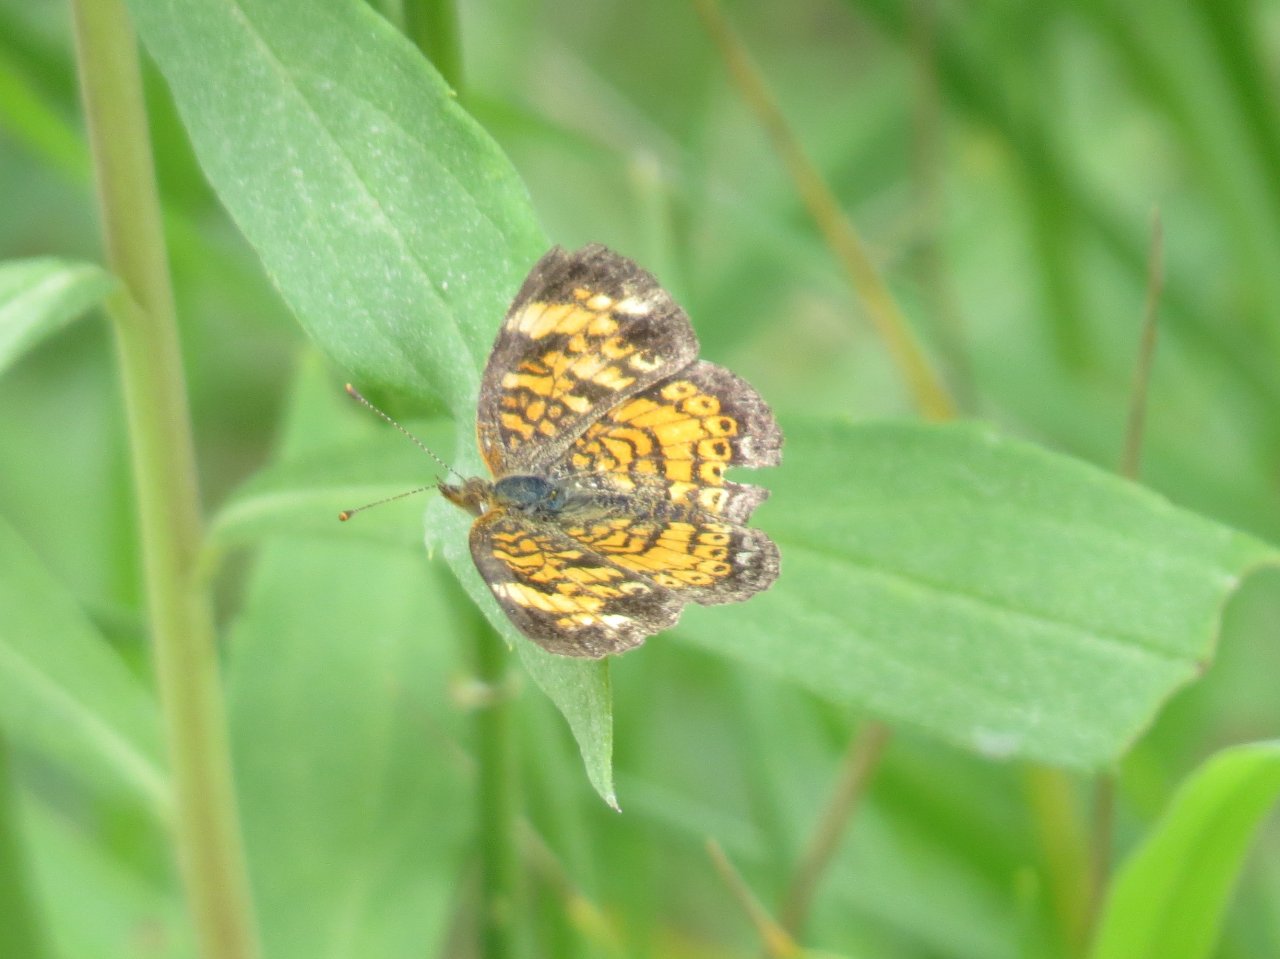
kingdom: Animalia
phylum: Arthropoda
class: Insecta
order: Lepidoptera
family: Nymphalidae
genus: Phyciodes
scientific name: Phyciodes tharos
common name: Pearl Crescent
